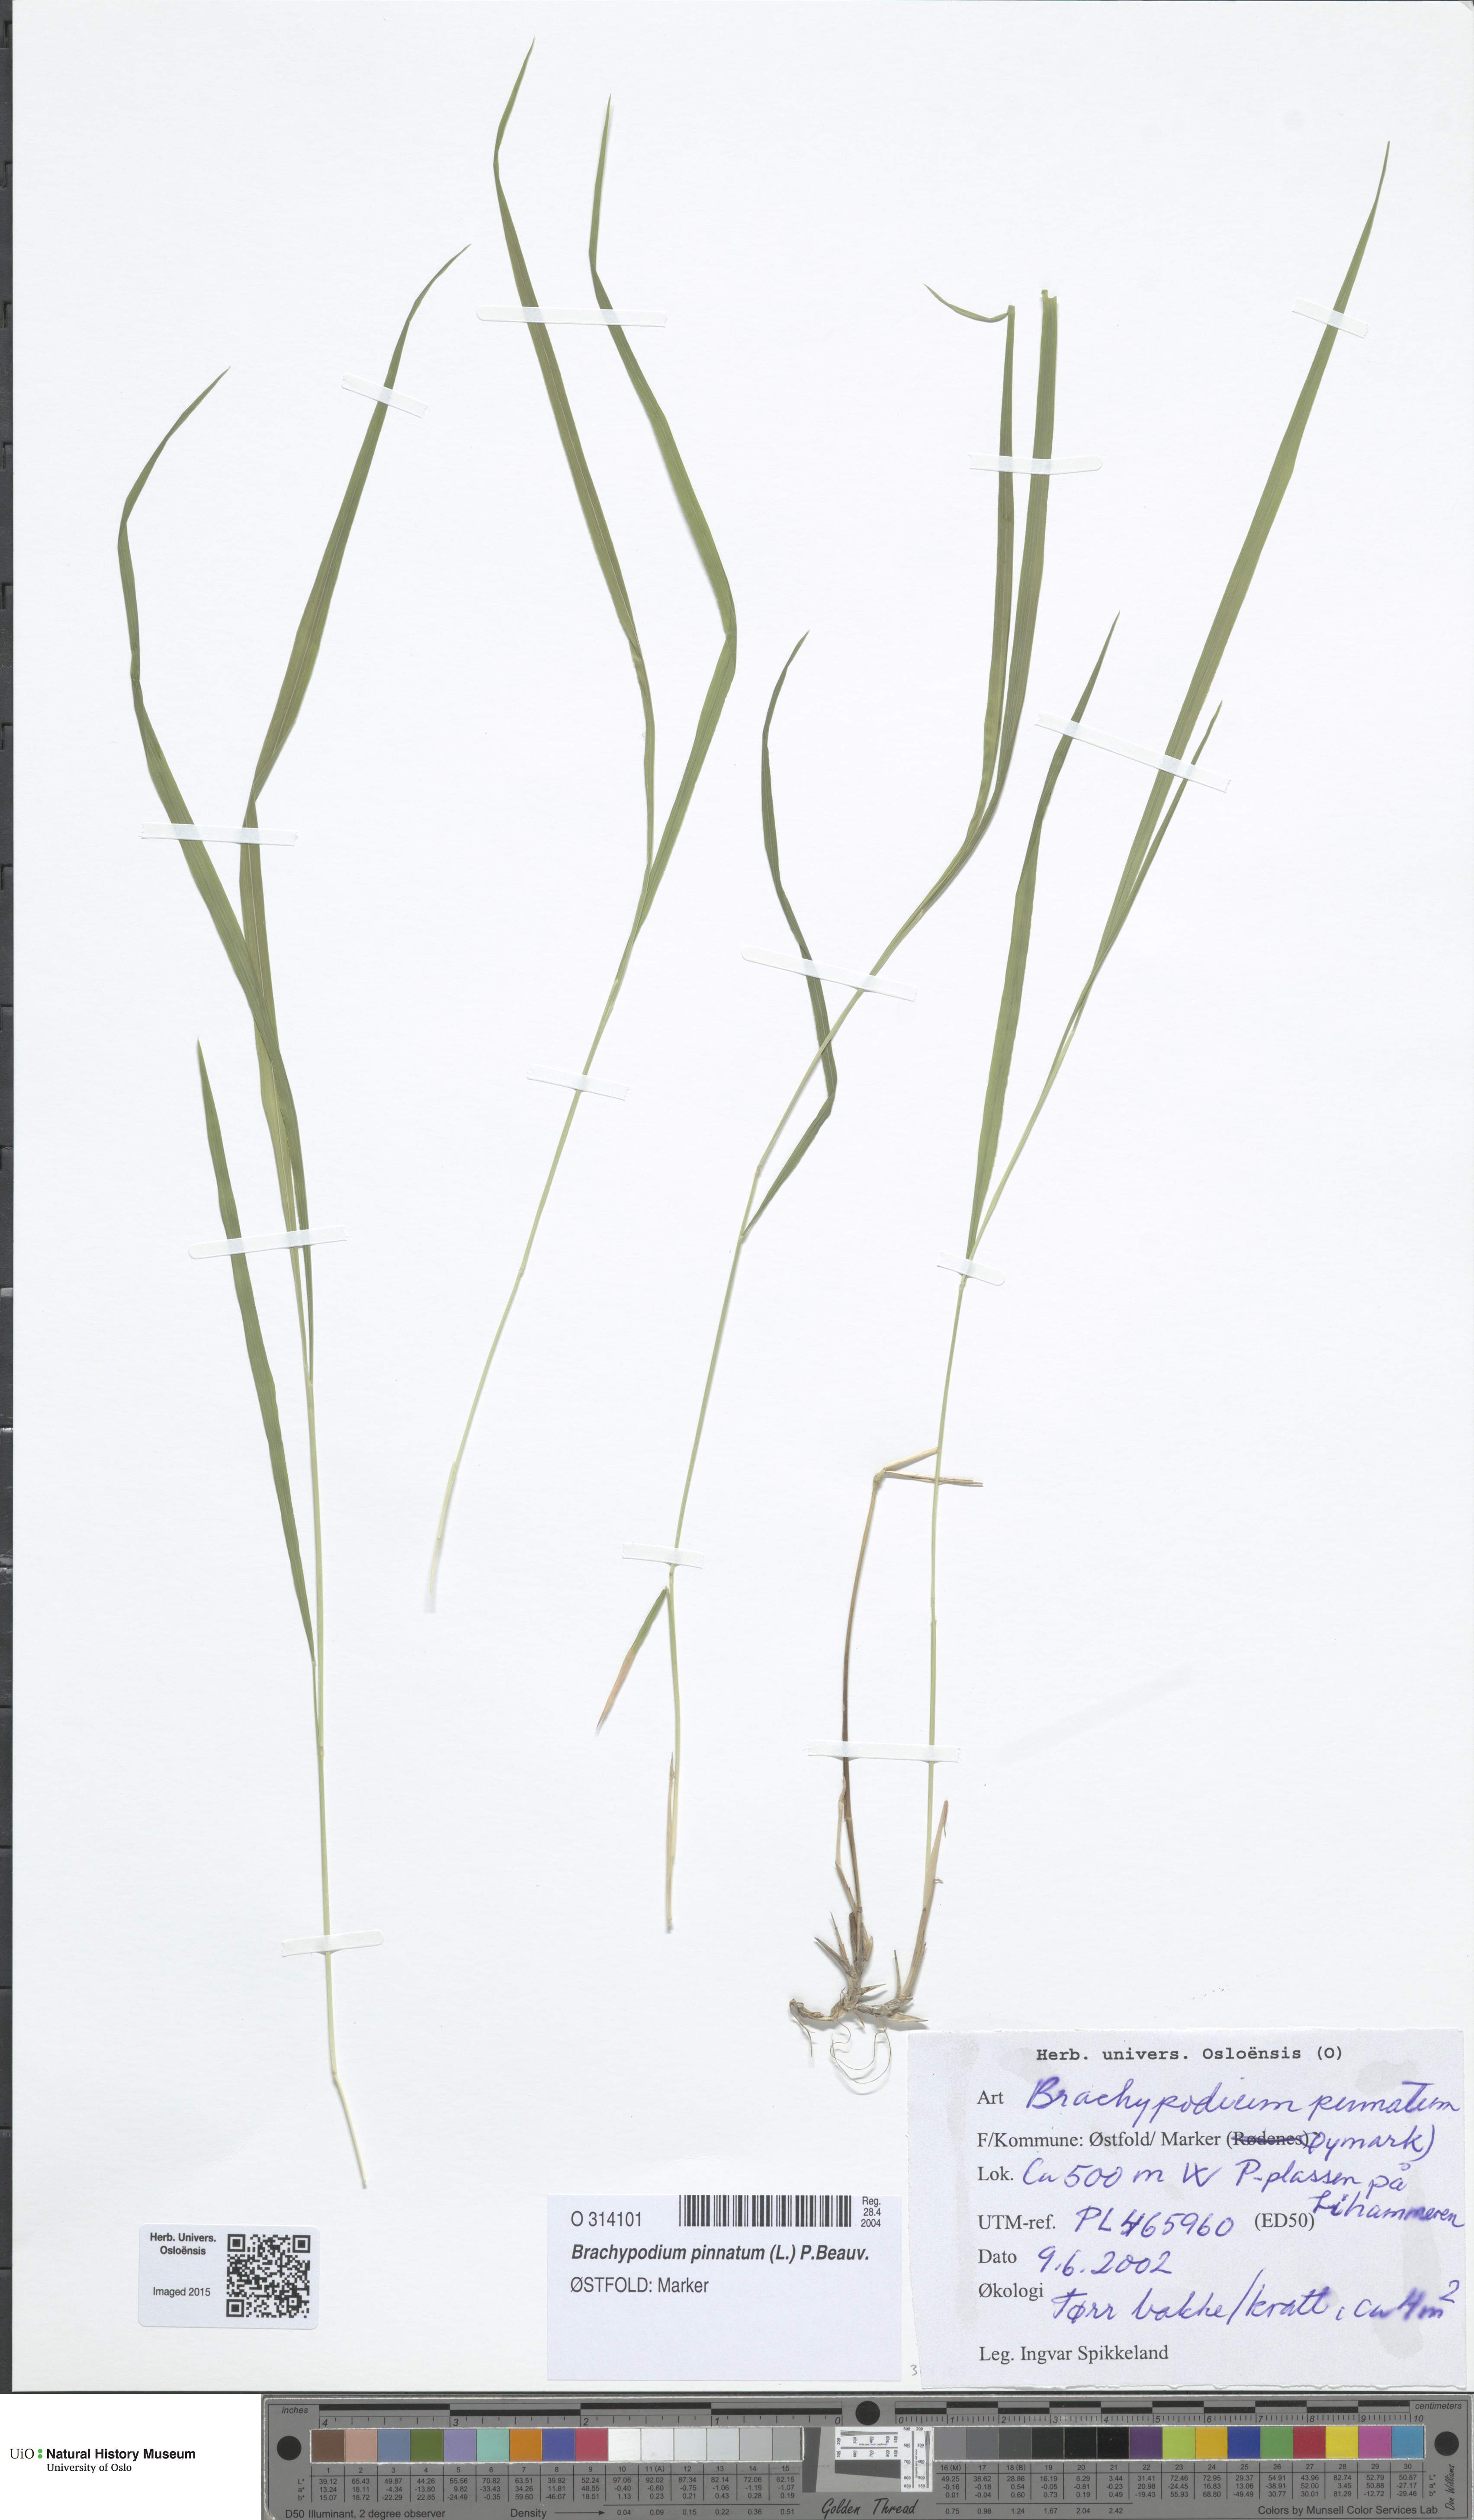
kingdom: Plantae
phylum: Tracheophyta
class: Liliopsida
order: Poales
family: Poaceae
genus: Brachypodium
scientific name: Brachypodium pinnatum
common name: Tor grass
